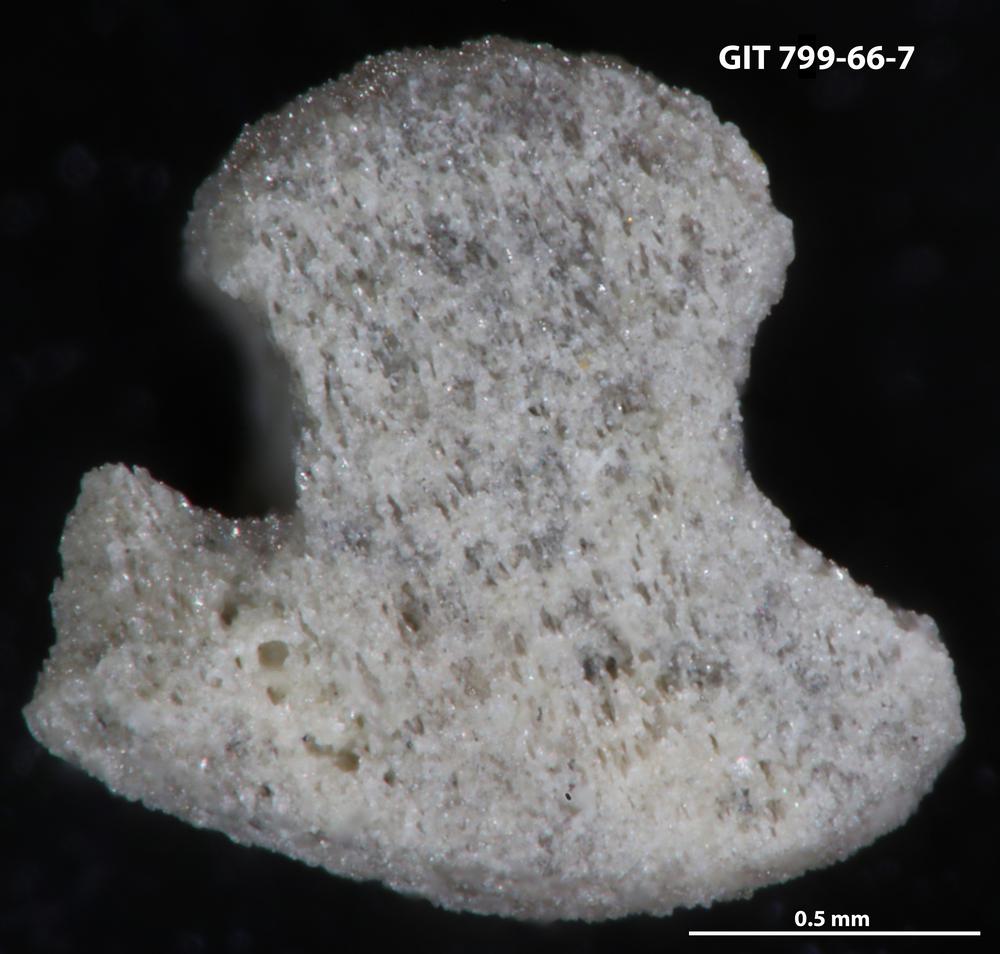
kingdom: Animalia
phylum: Echinodermata
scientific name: Echinodermata
